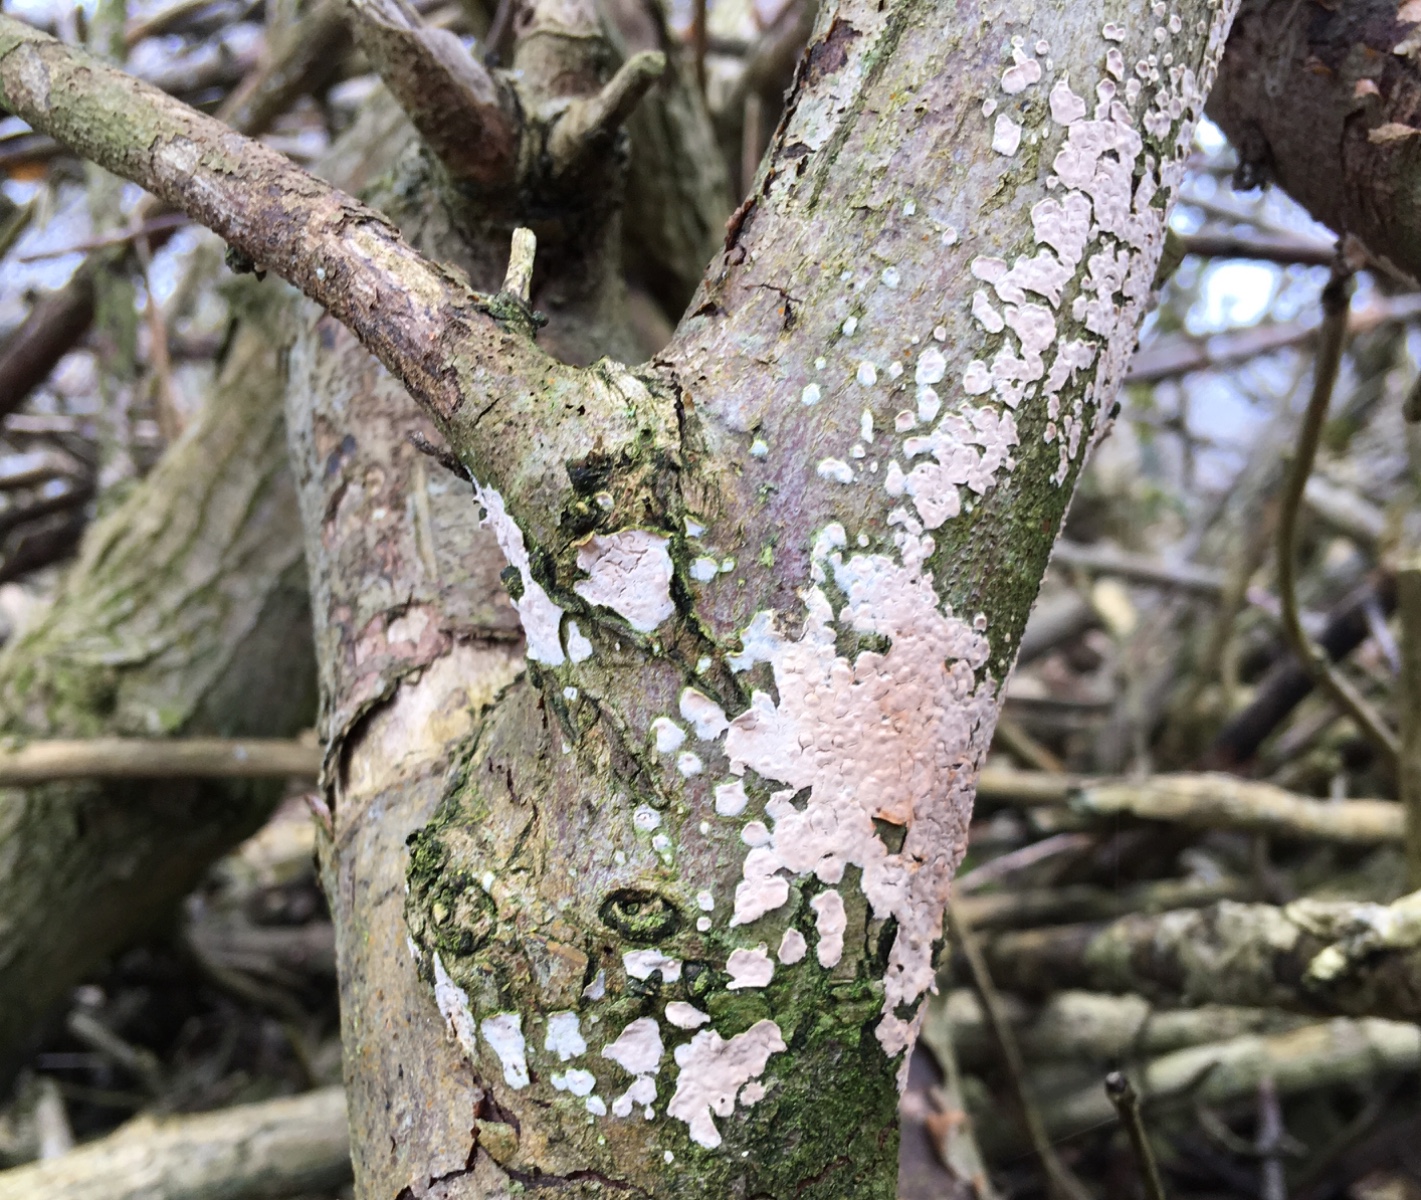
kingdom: Fungi
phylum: Basidiomycota
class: Agaricomycetes
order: Agaricales
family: Physalacriaceae
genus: Cylindrobasidium
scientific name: Cylindrobasidium evolvens
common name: sprækkehinde
